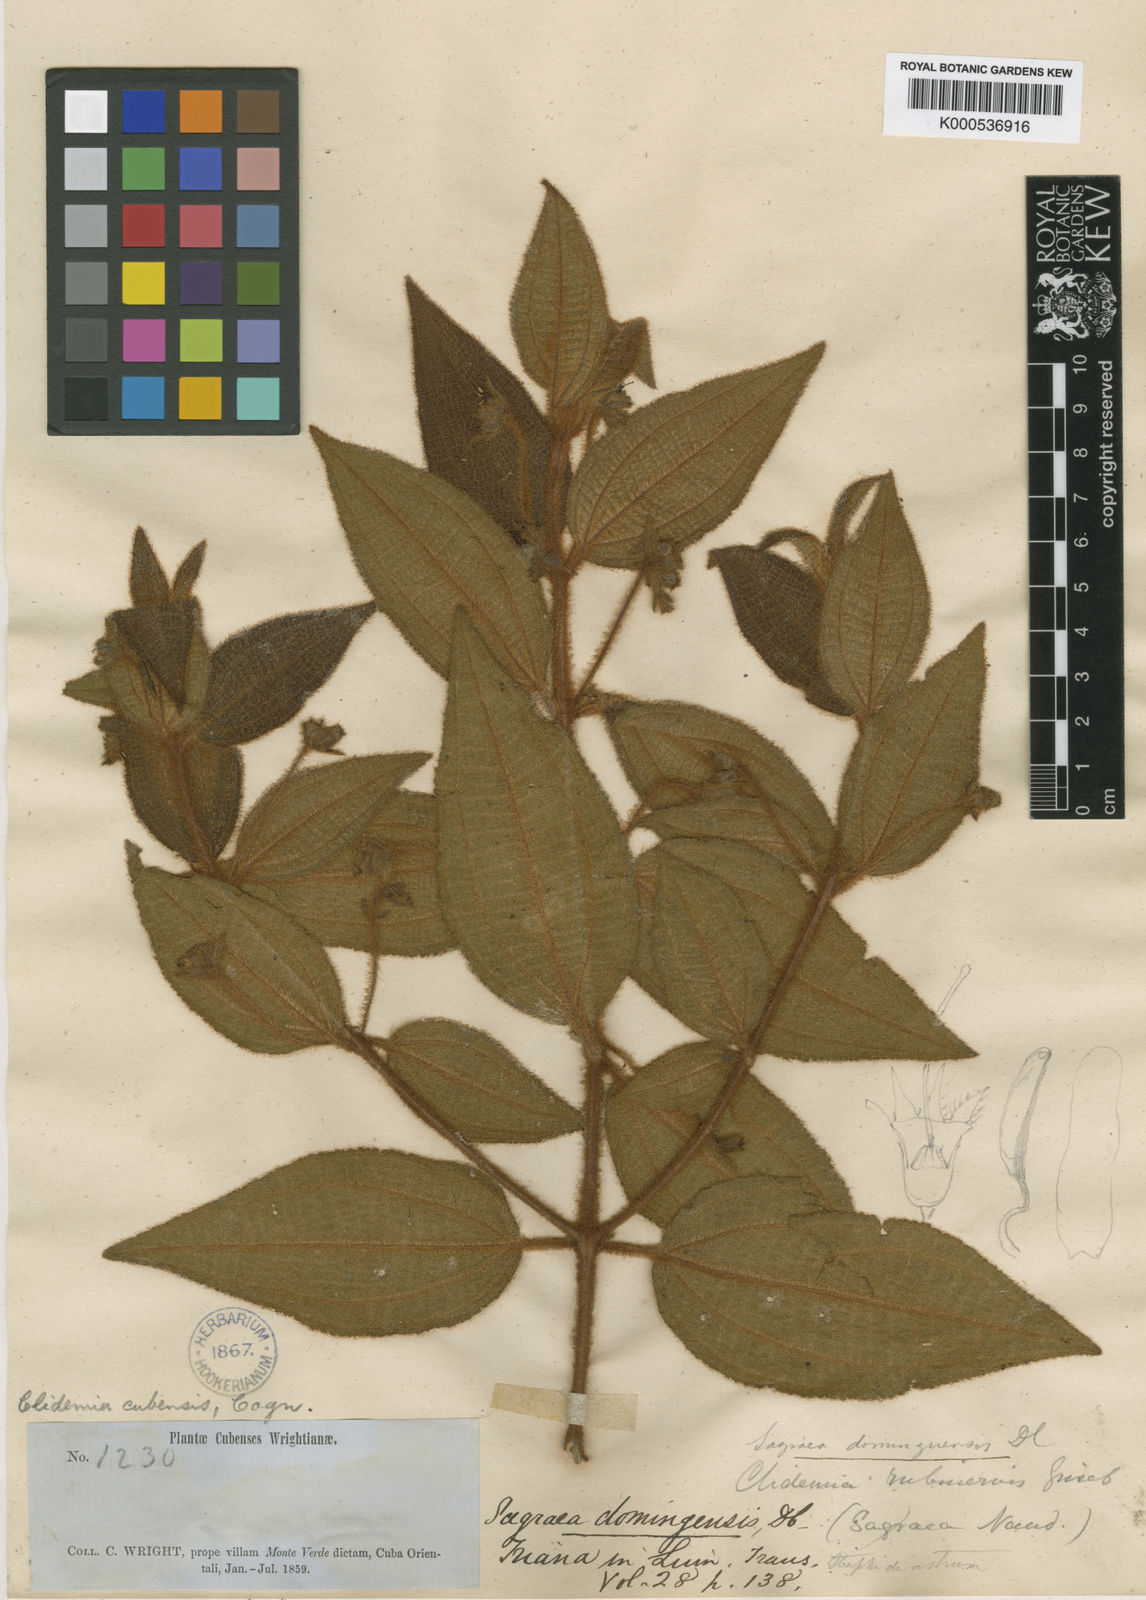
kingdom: Plantae
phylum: Tracheophyta
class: Magnoliopsida
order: Myrtales
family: Melastomataceae
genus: Miconia
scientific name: Miconia rubrinervis
